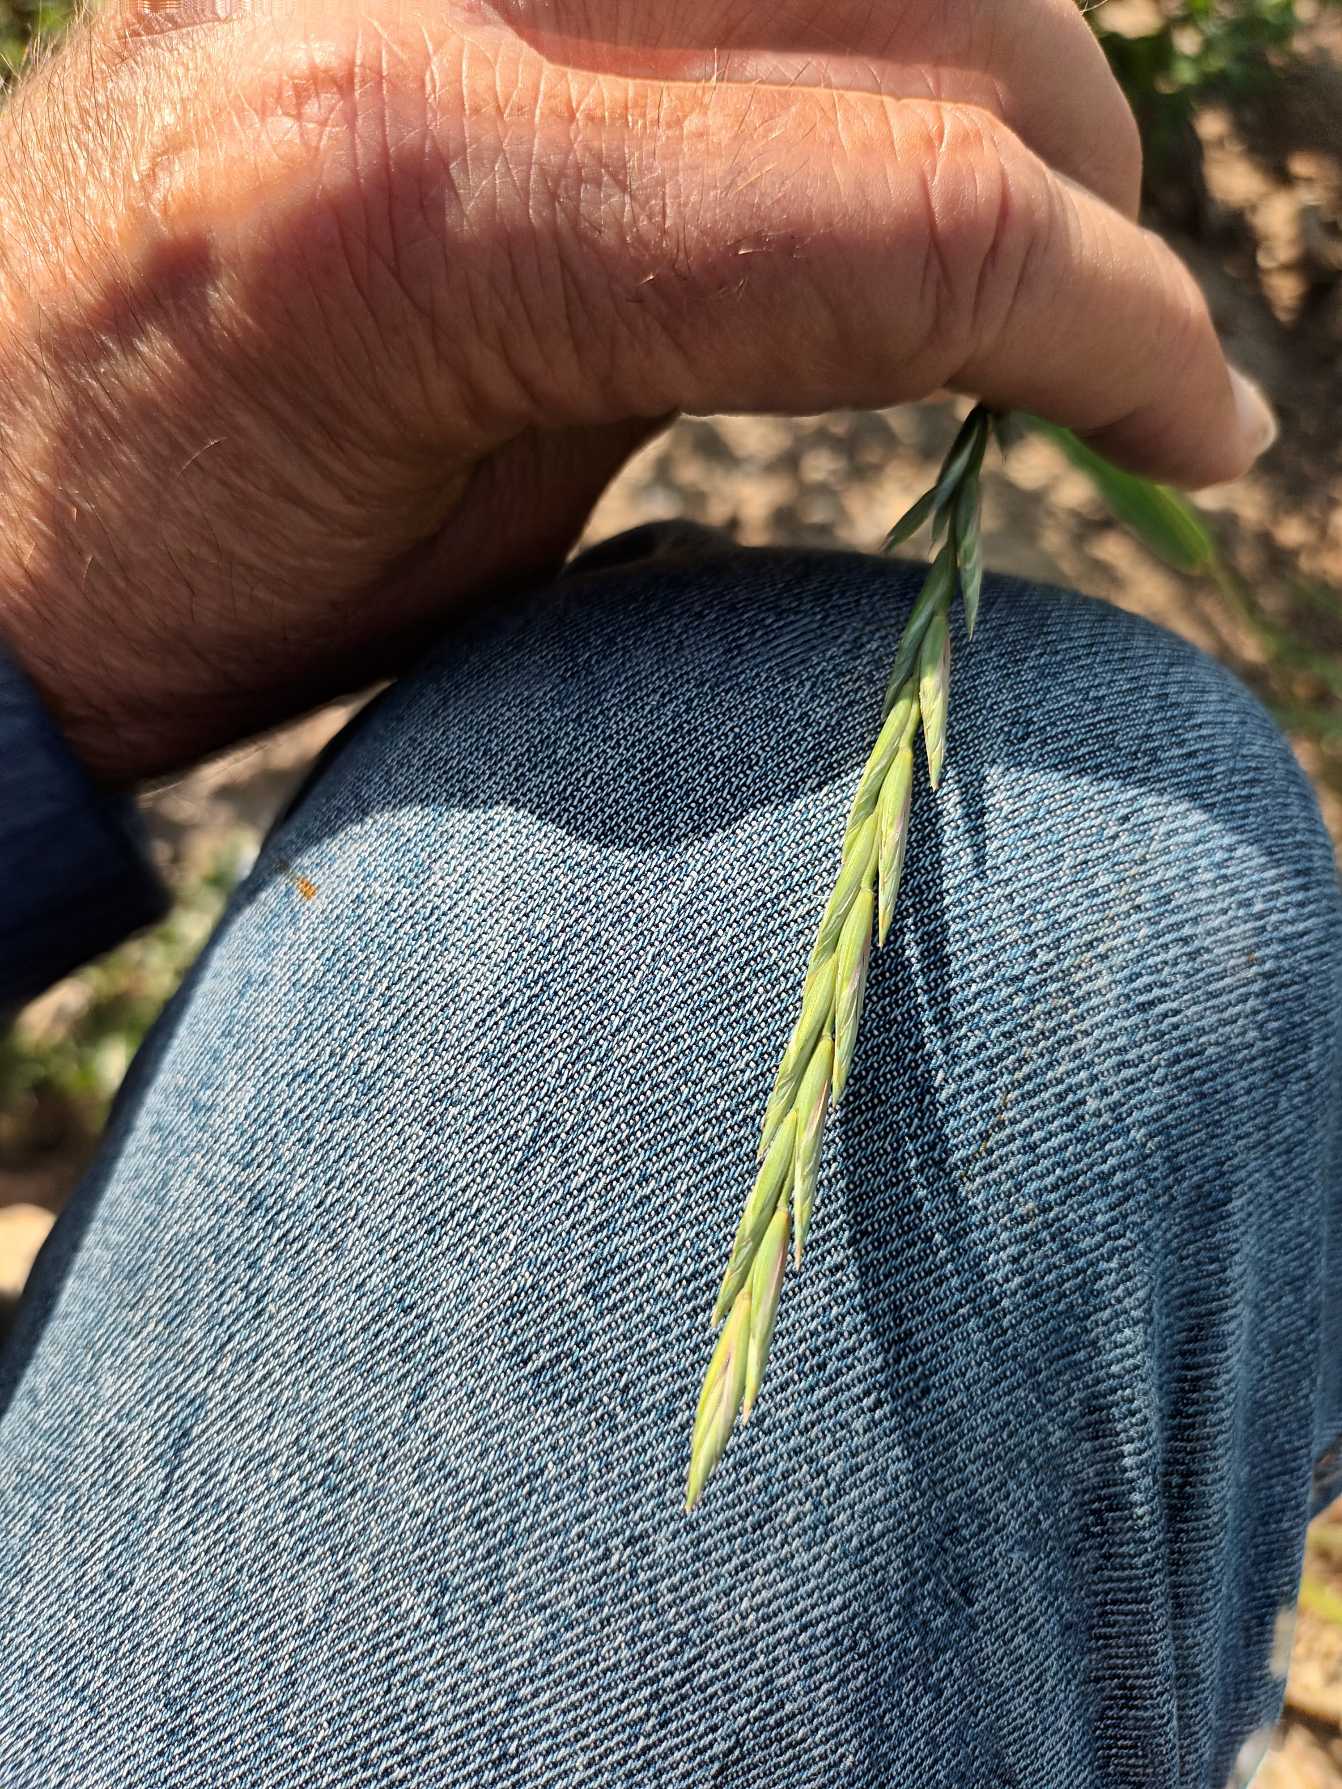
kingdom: Plantae
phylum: Tracheophyta
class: Liliopsida
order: Poales
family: Poaceae
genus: Elymus
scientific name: Elymus repens
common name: Almindelig kvik
